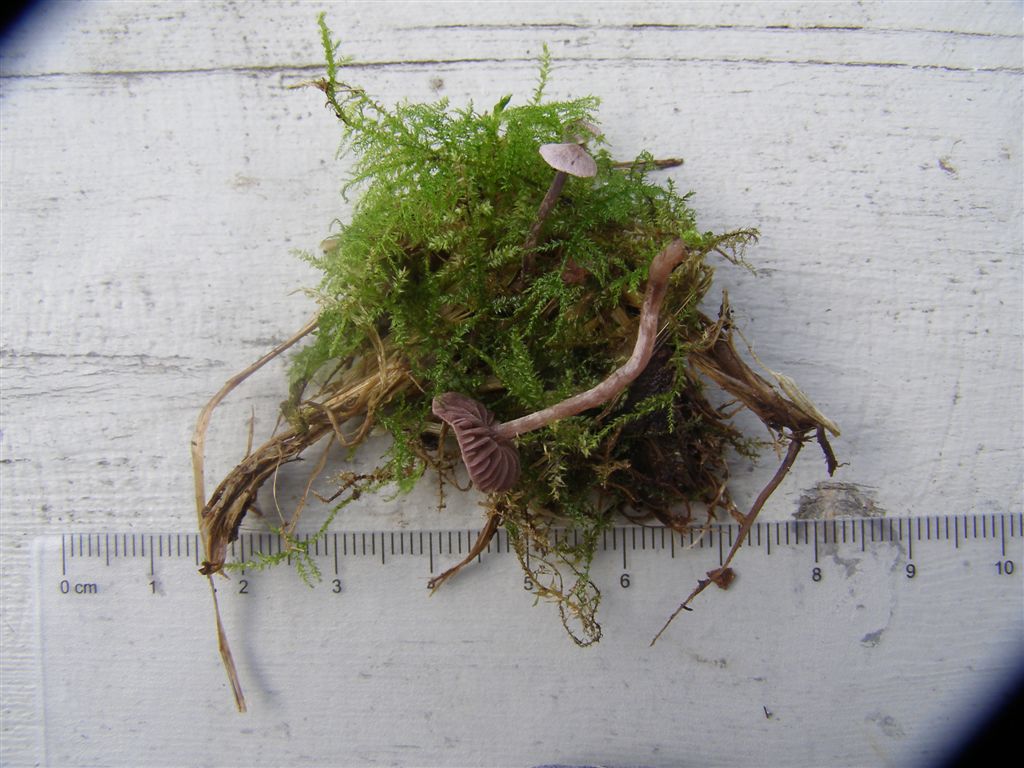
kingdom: Fungi
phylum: Basidiomycota
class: Agaricomycetes
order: Agaricales
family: Cortinariaceae
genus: Cortinarius
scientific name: Cortinarius bibulus
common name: smuk slørhat
